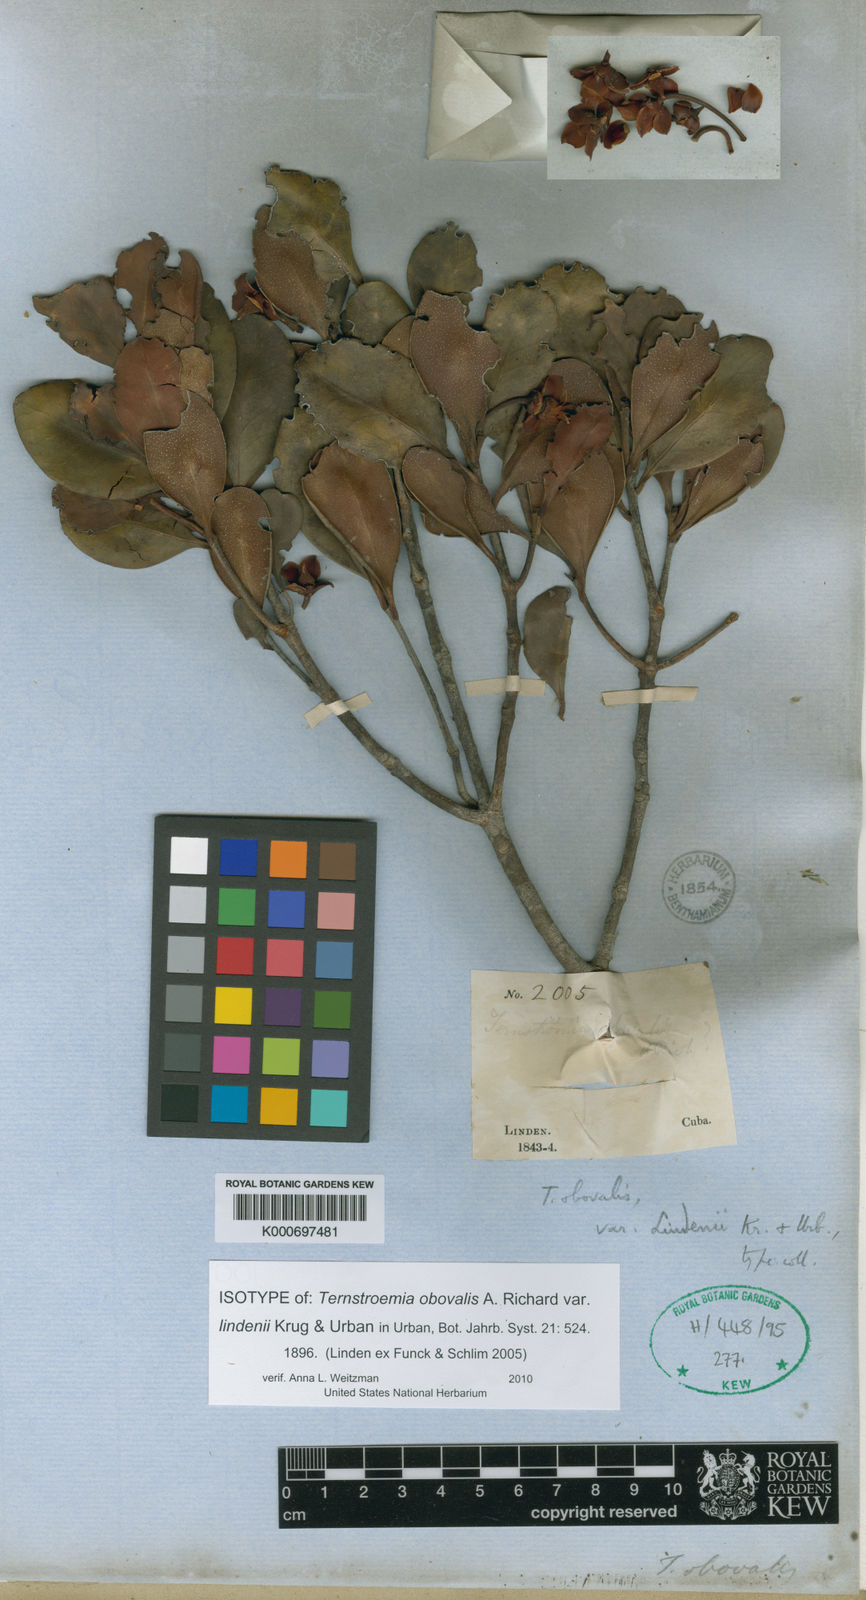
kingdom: Plantae
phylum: Tracheophyta
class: Magnoliopsida
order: Ericales
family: Pentaphylacaceae
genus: Ternstroemia
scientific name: Ternstroemia peduncularis
